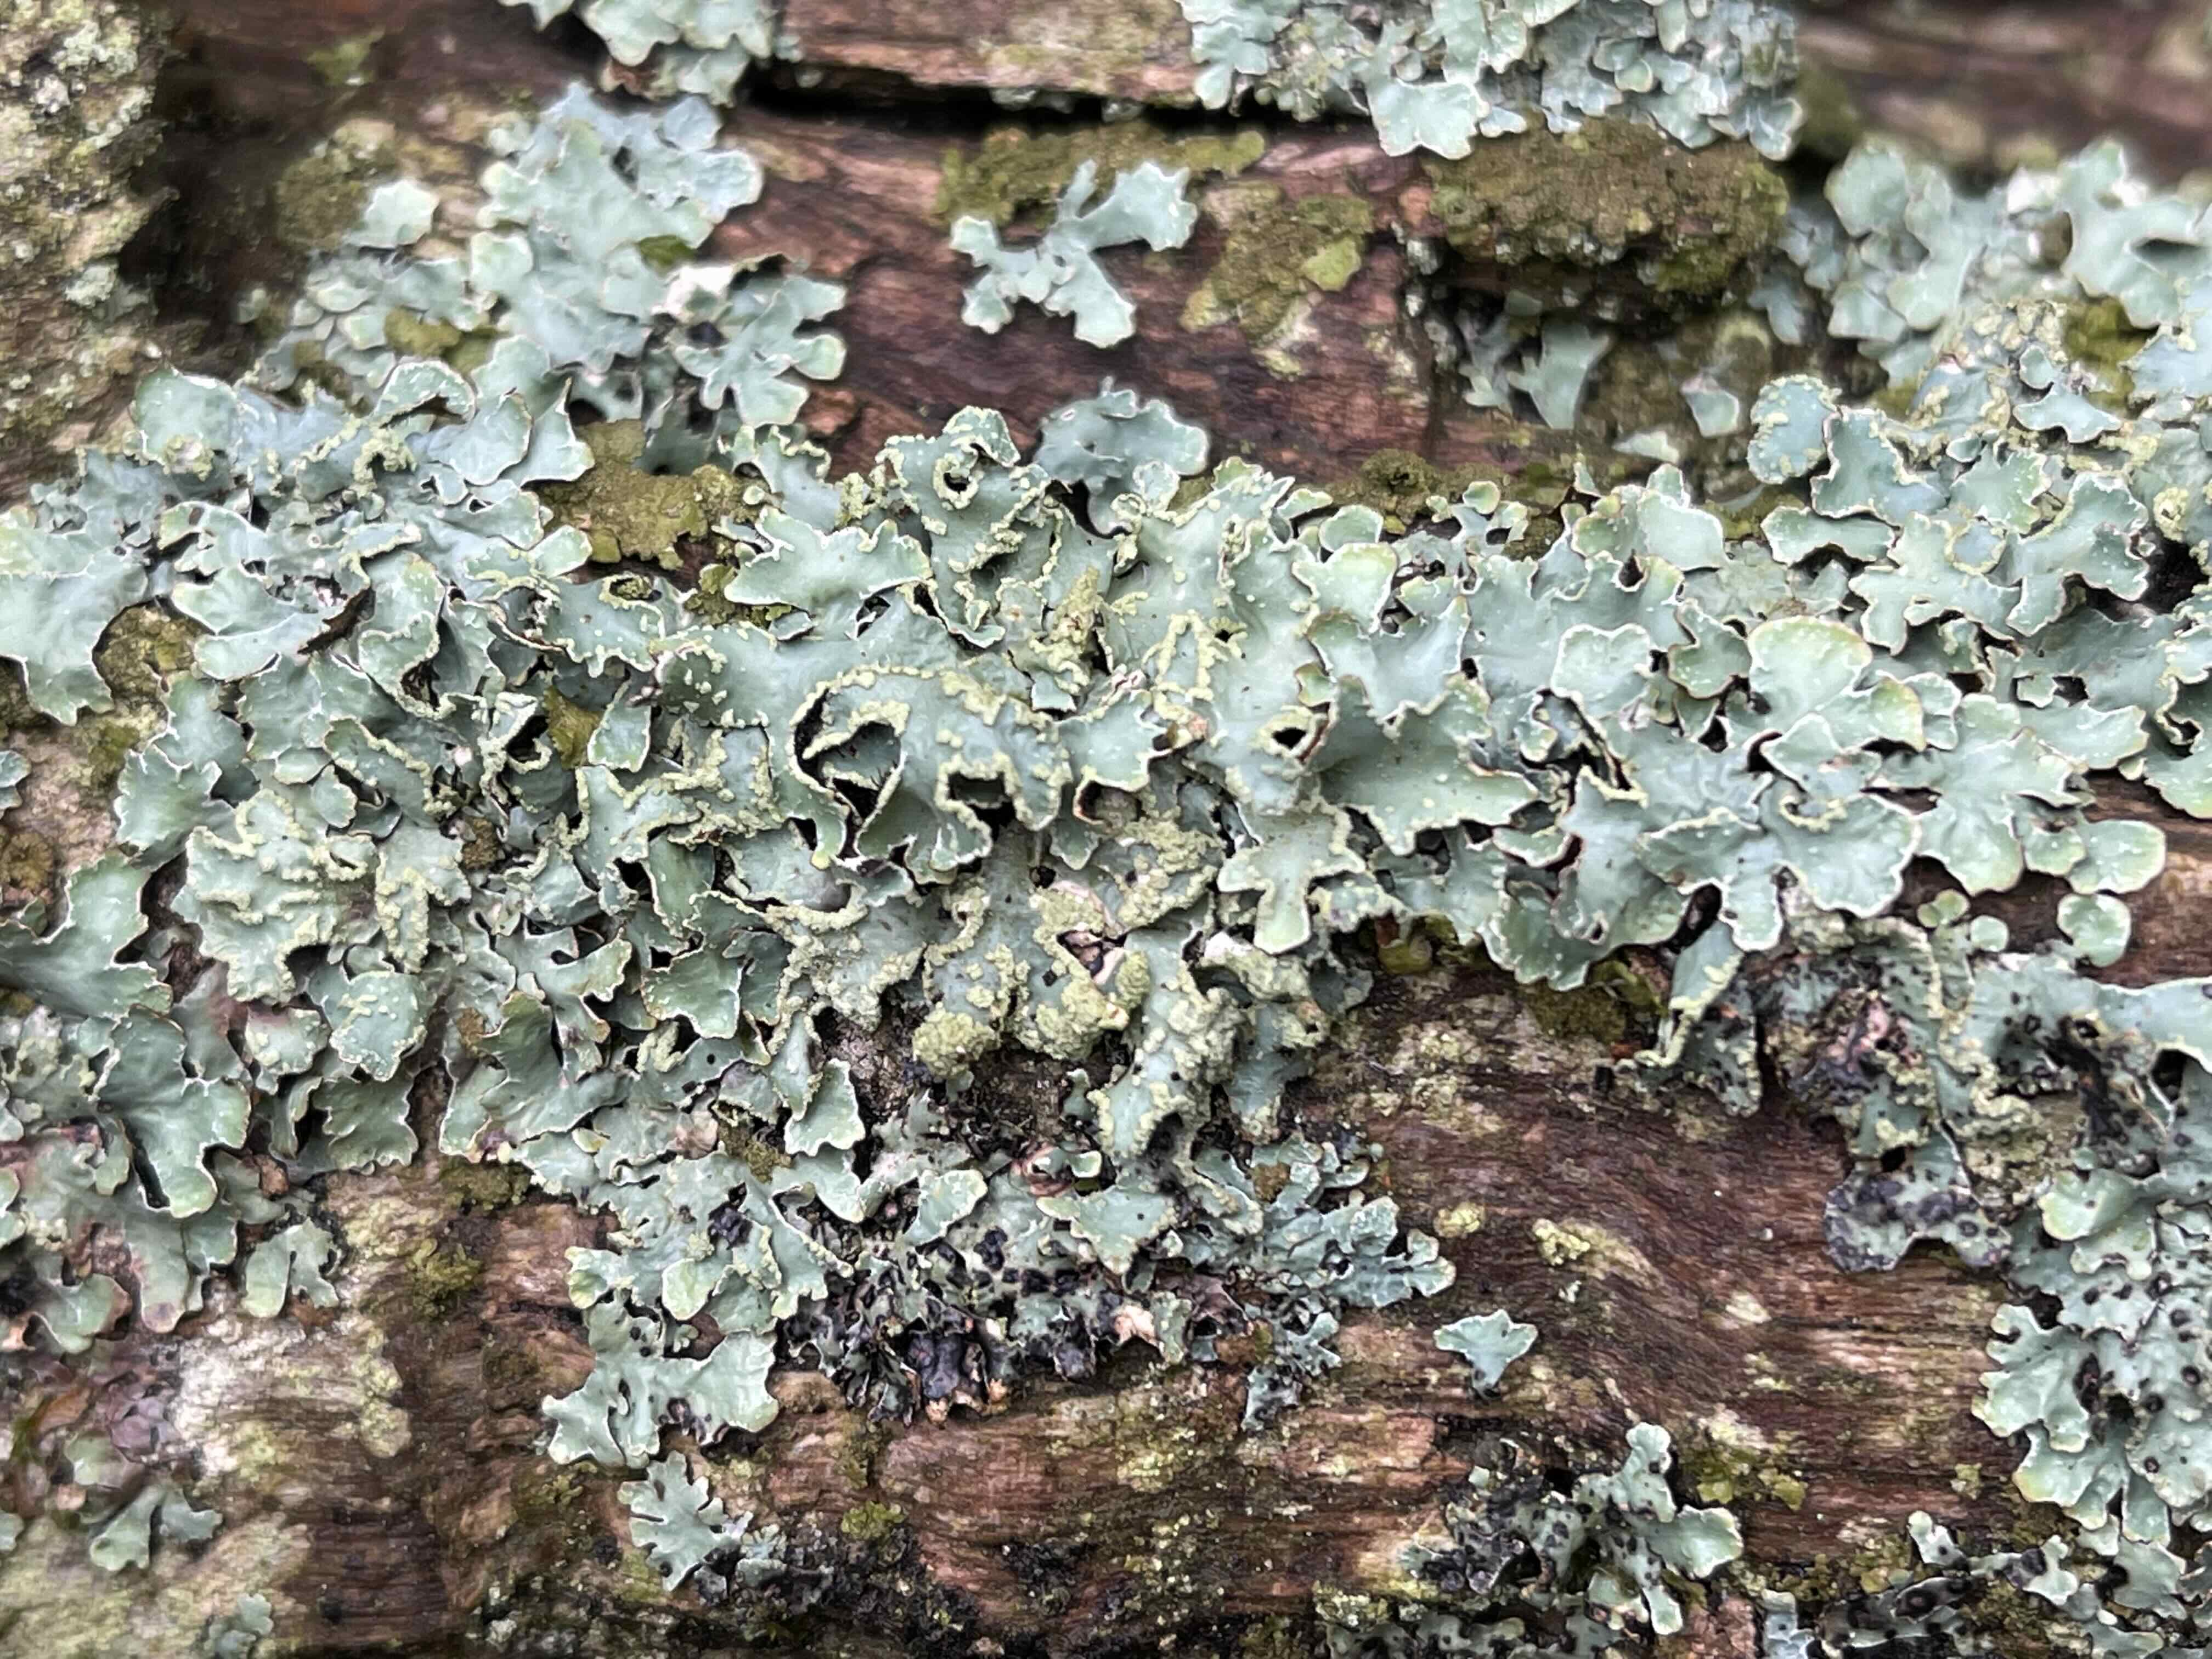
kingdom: Fungi
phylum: Ascomycota
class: Lecanoromycetes
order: Lecanorales
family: Parmeliaceae
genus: Parmelia
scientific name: Parmelia sulcata
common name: rynket skållav
